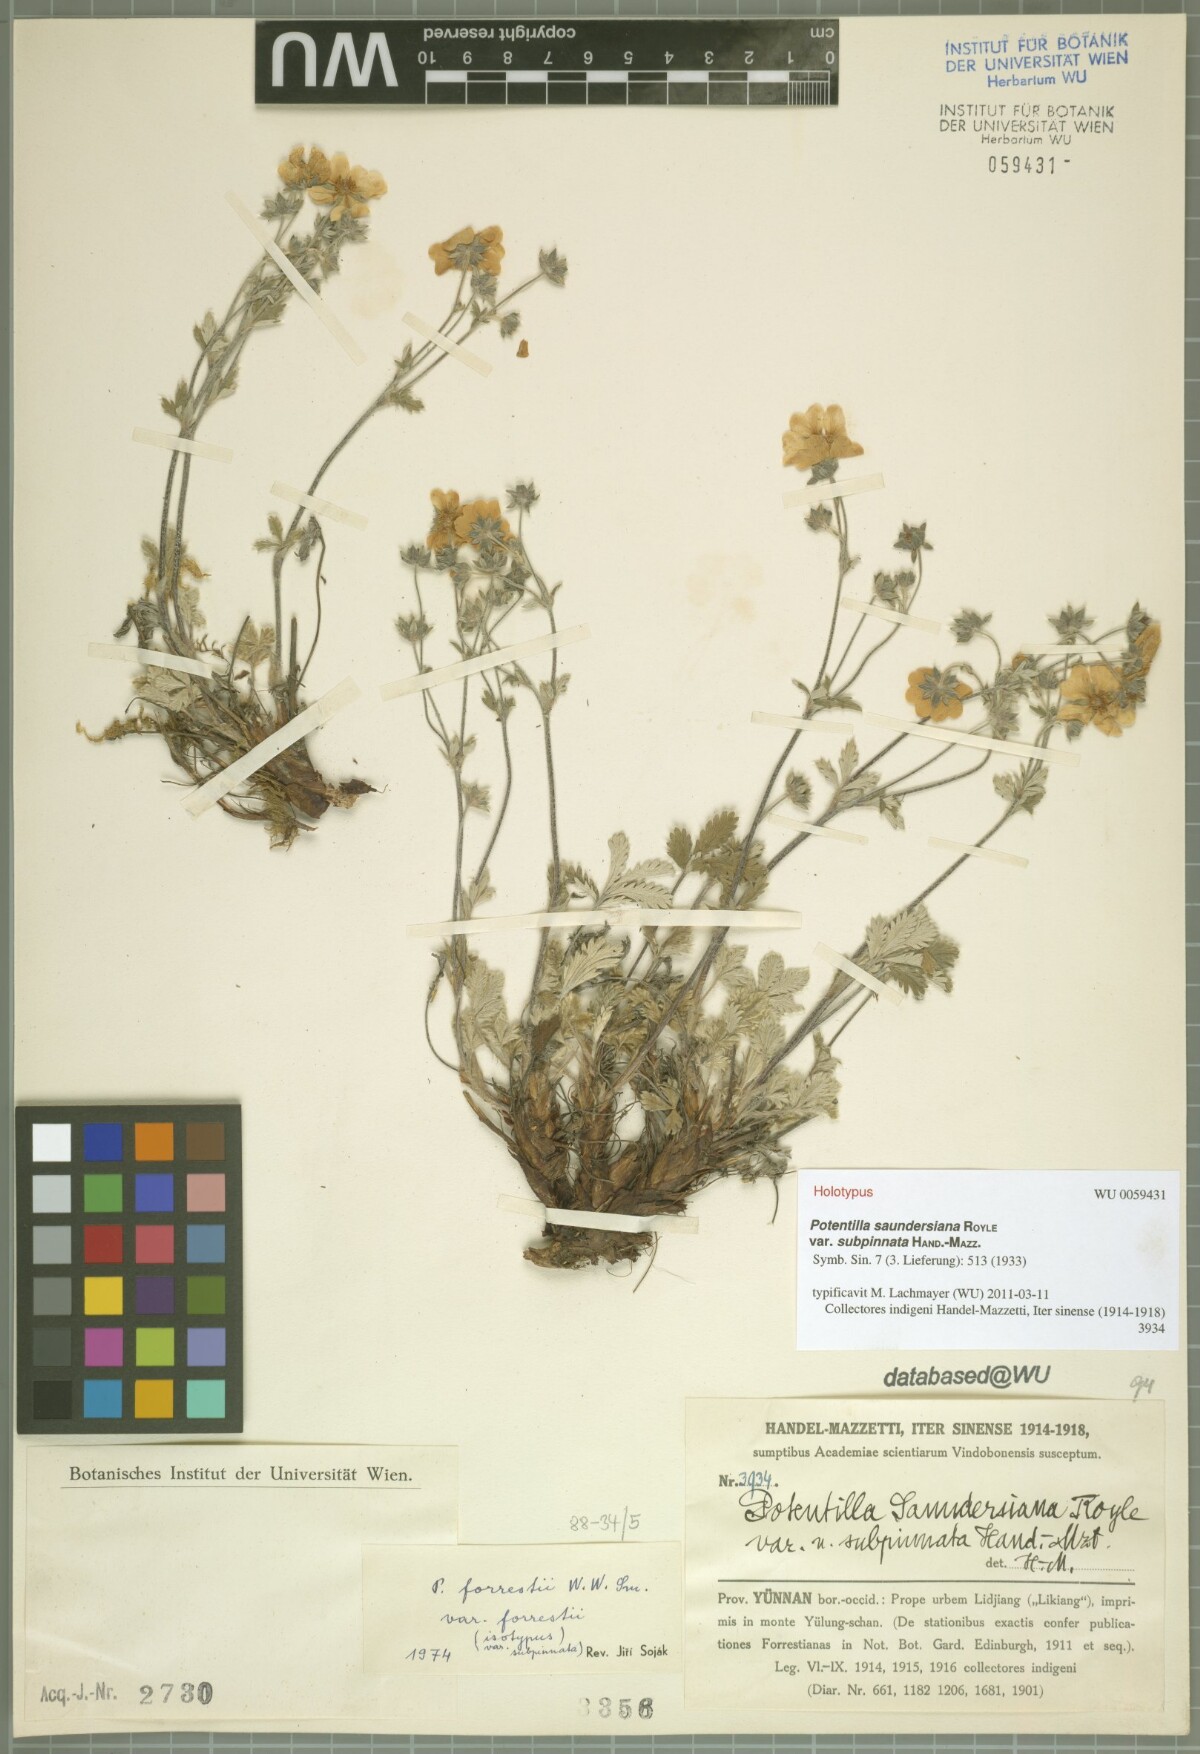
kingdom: Plantae
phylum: Tracheophyta
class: Magnoliopsida
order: Rosales
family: Rosaceae
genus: Potentilla
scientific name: Potentilla saundersiana
